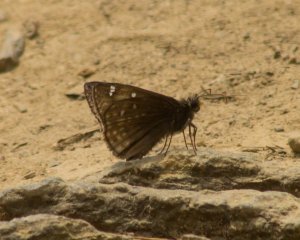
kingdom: Animalia
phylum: Arthropoda
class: Insecta
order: Lepidoptera
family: Hesperiidae
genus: Gesta
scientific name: Gesta
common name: Juvenal's Duskywing
